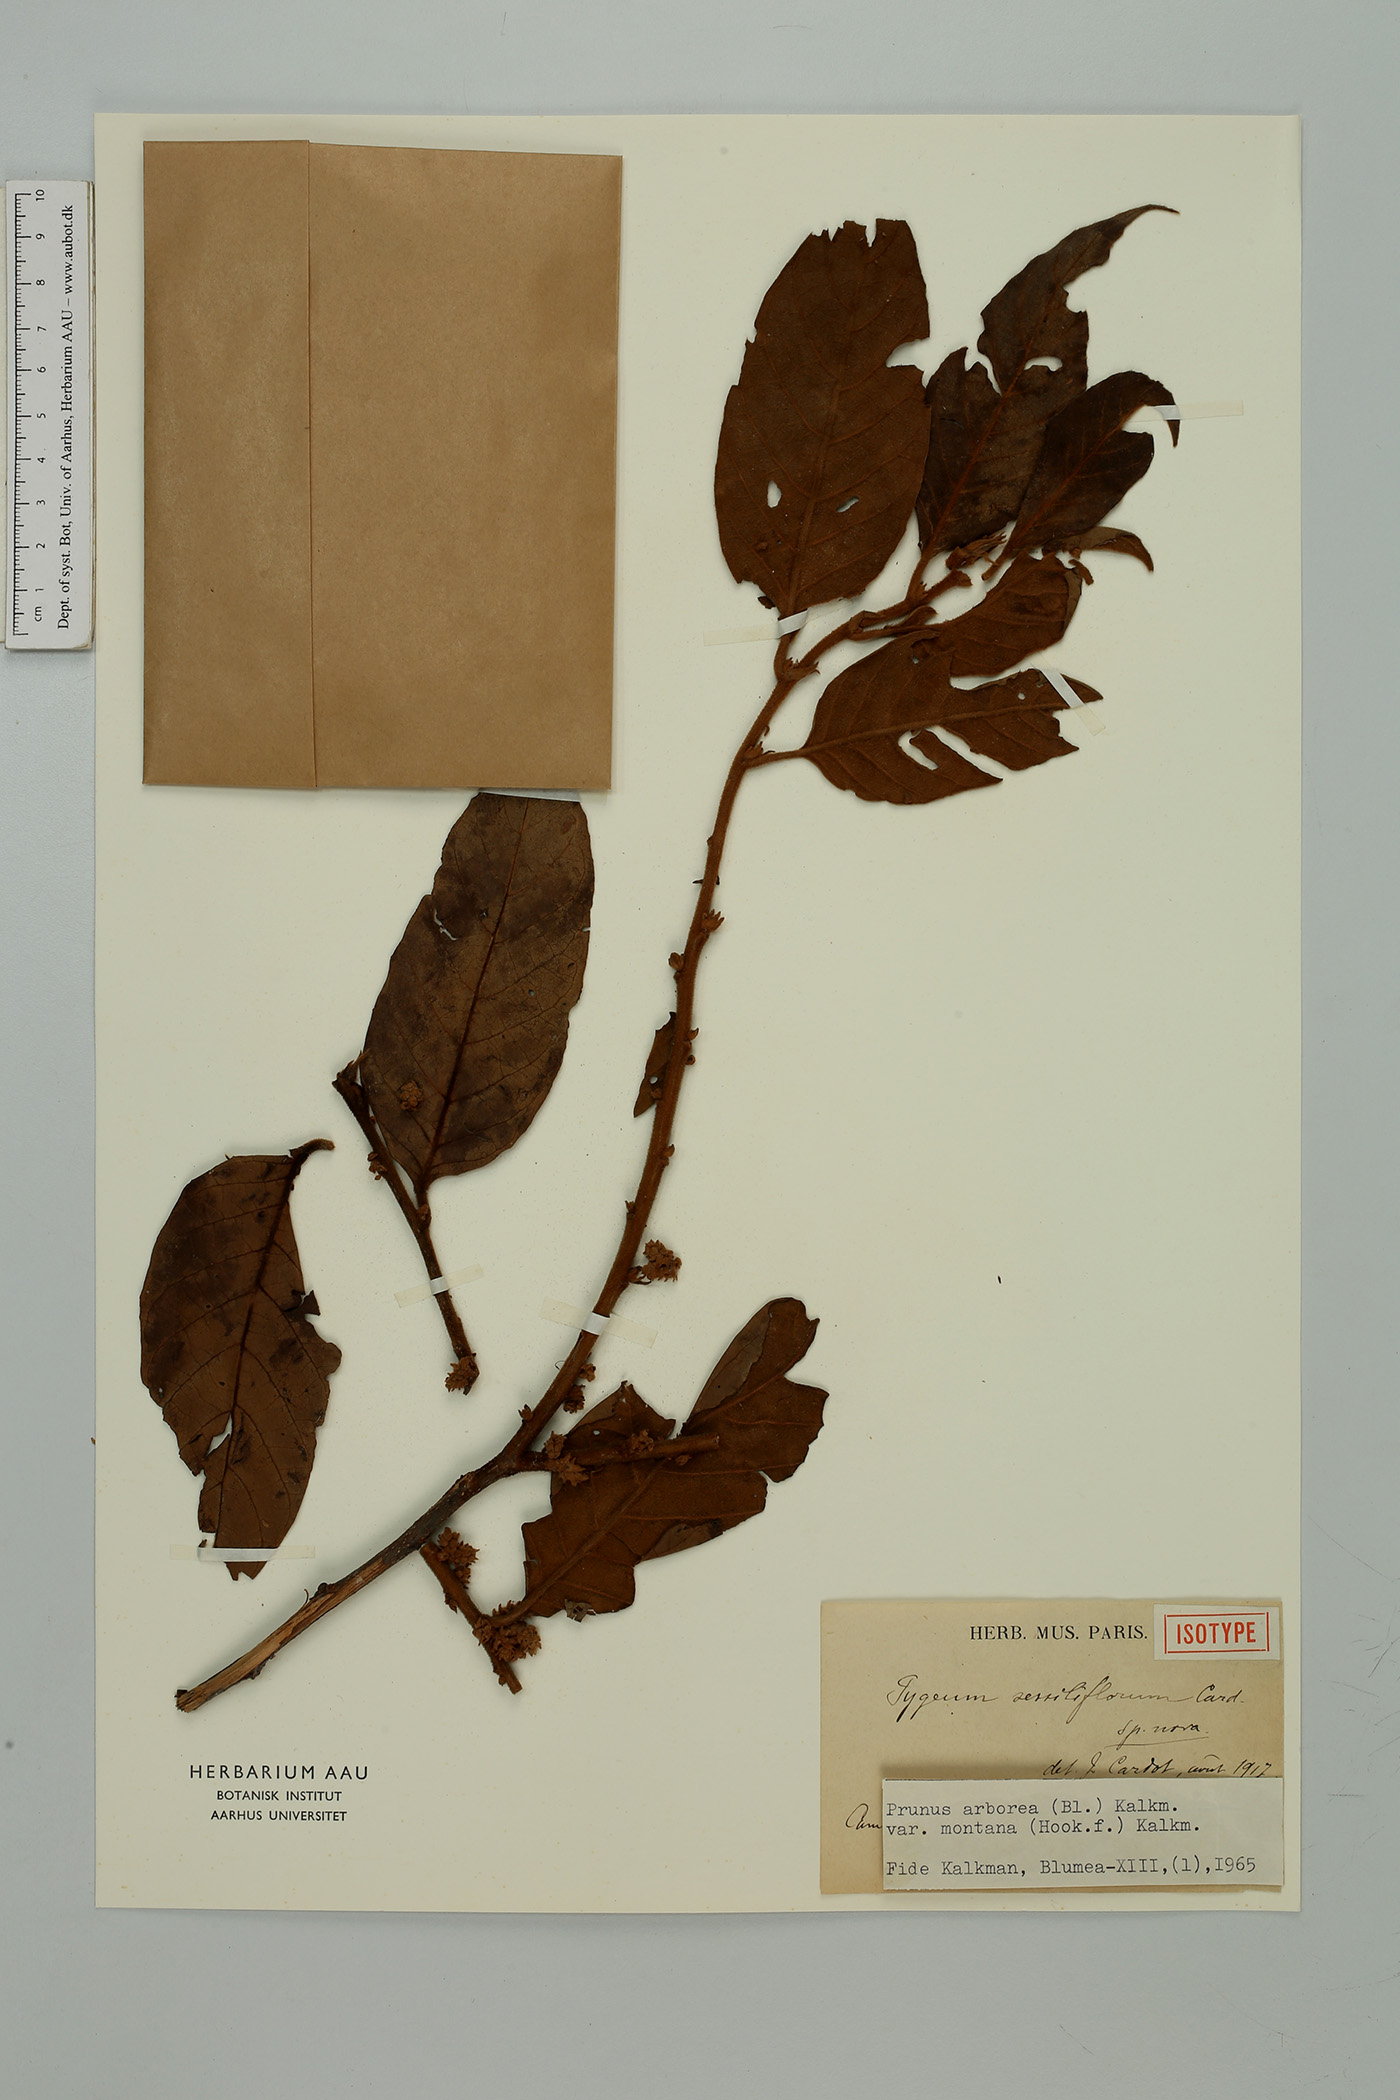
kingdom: Plantae
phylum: Tracheophyta
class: Magnoliopsida
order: Rosales
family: Rosaceae
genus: Prunus
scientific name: Prunus arborea
